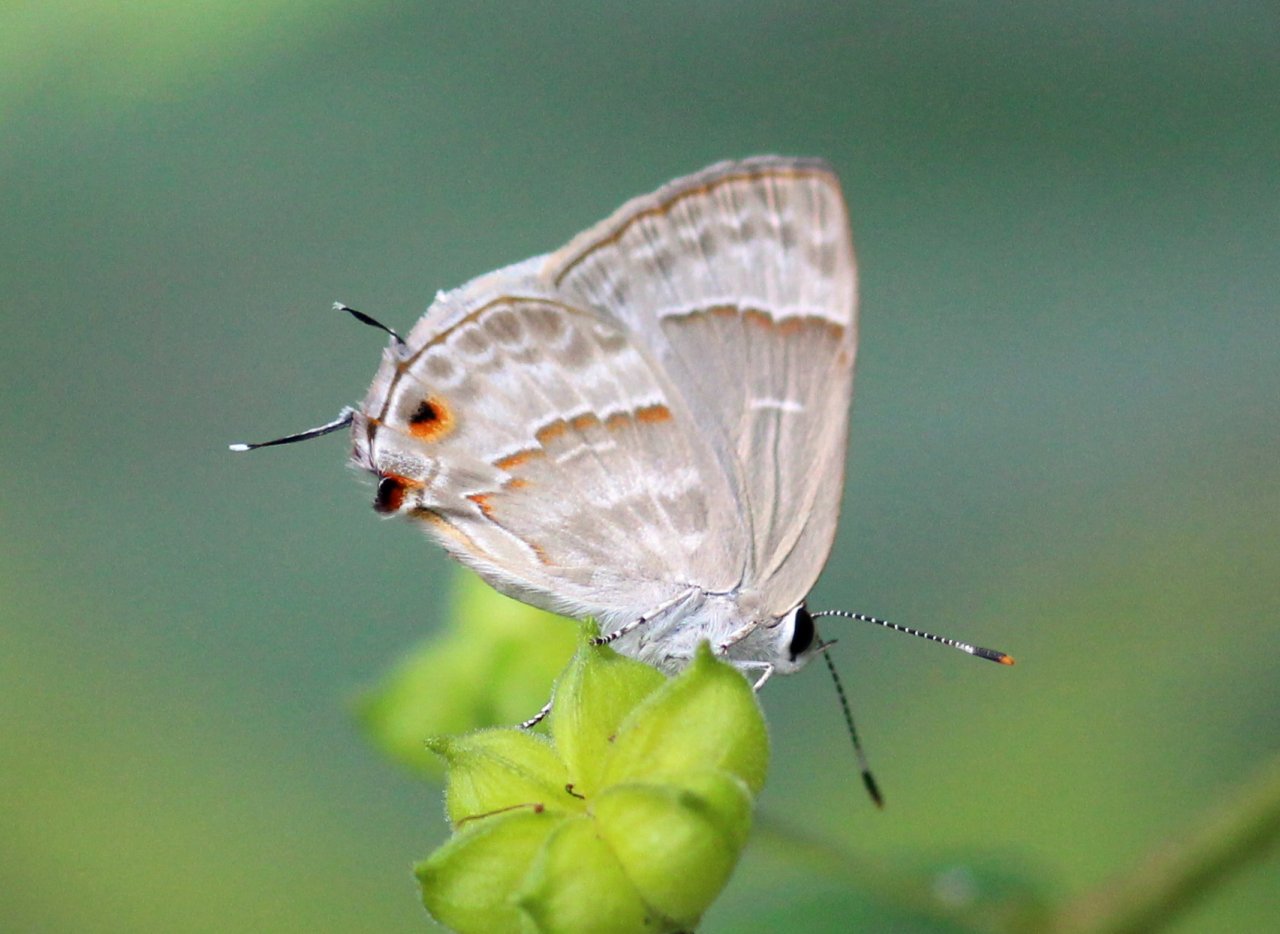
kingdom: Animalia
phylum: Arthropoda
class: Insecta
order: Lepidoptera
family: Lycaenidae
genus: Thecla
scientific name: Thecla yojoa
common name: Yojoa Scrub-Hairstreak
